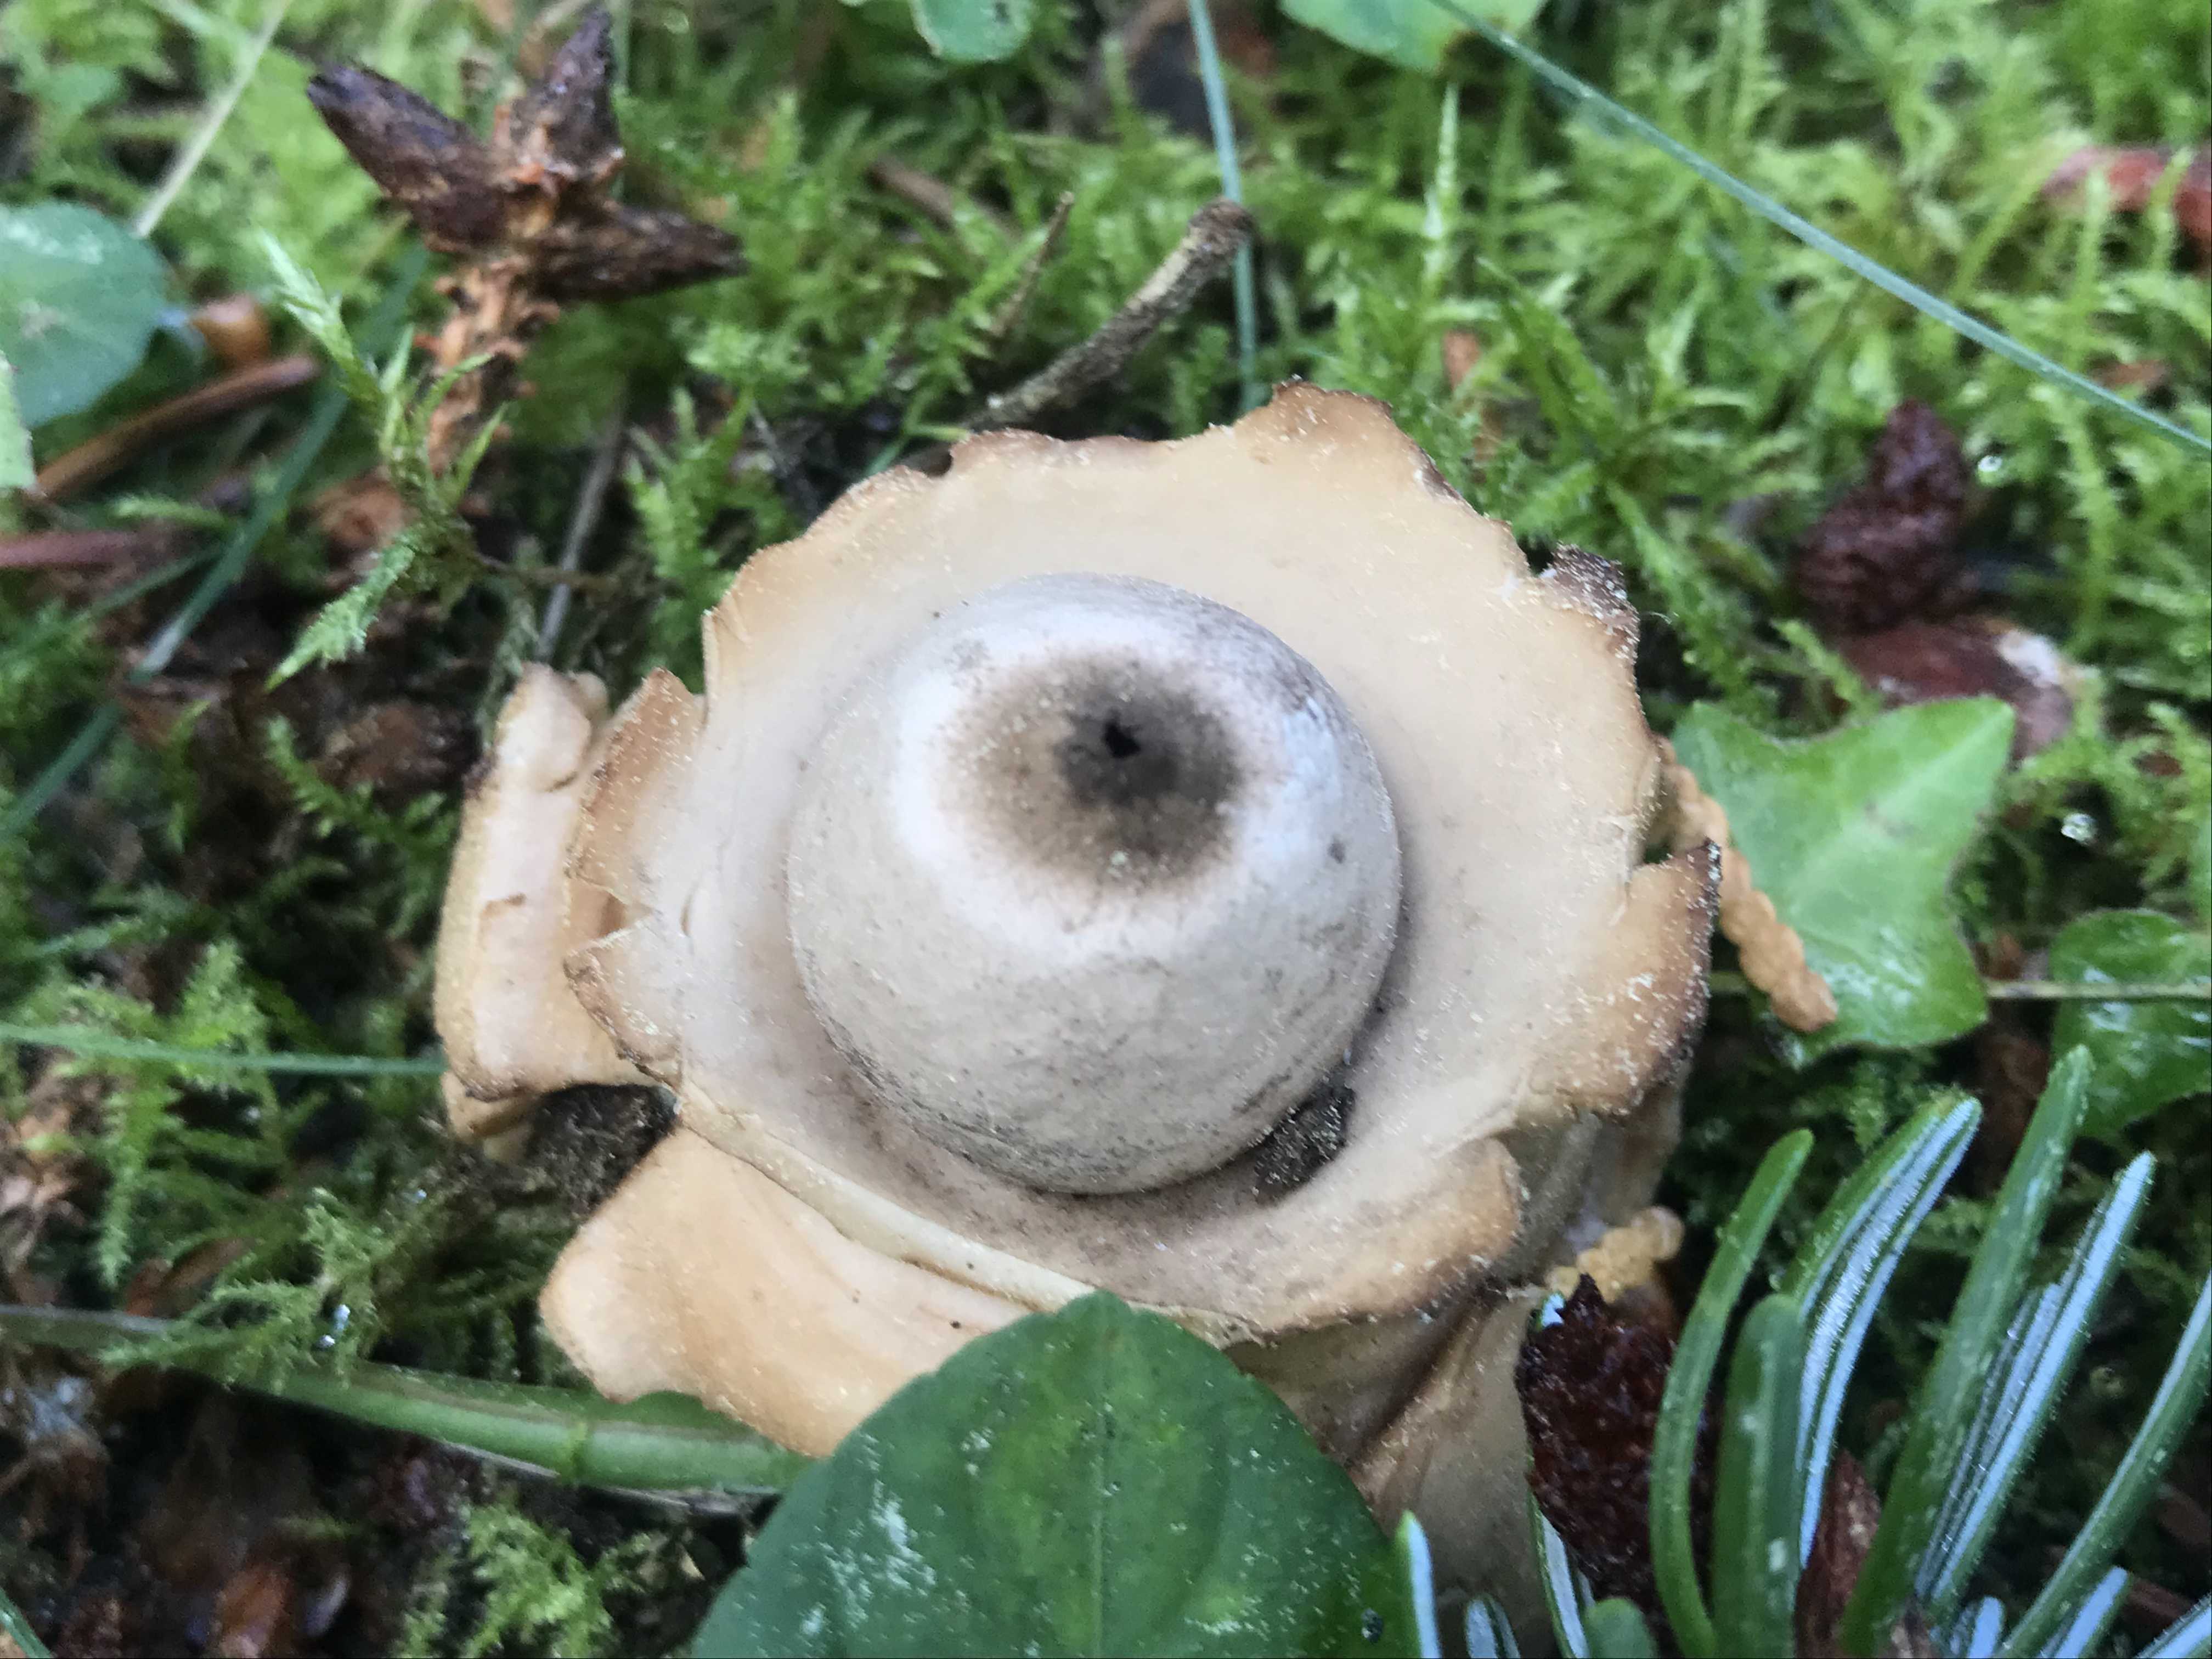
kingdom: Fungi
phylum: Basidiomycota
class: Agaricomycetes
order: Geastrales
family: Geastraceae
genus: Geastrum
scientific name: Geastrum michelianum
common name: kødet stjernebold
